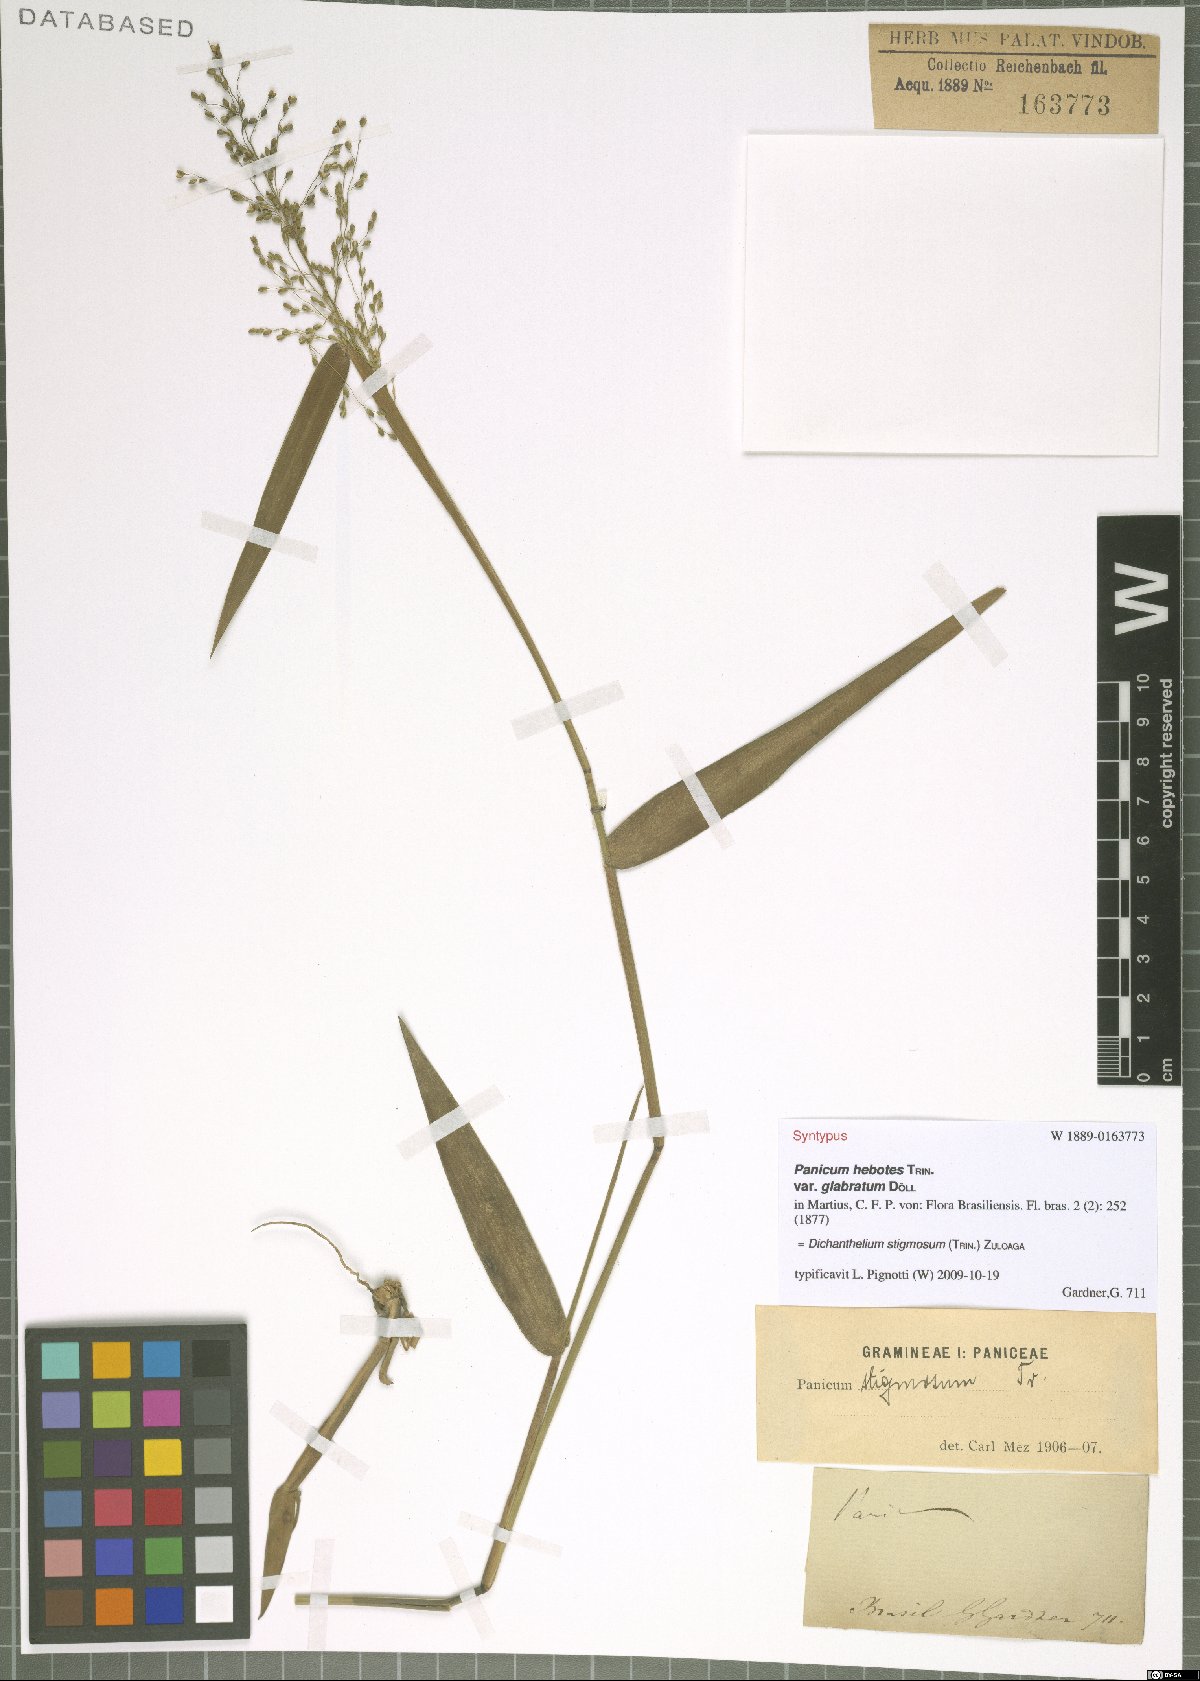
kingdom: Plantae
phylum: Tracheophyta
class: Liliopsida
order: Poales
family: Poaceae
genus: Dichanthelium
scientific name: Dichanthelium stigmosum
